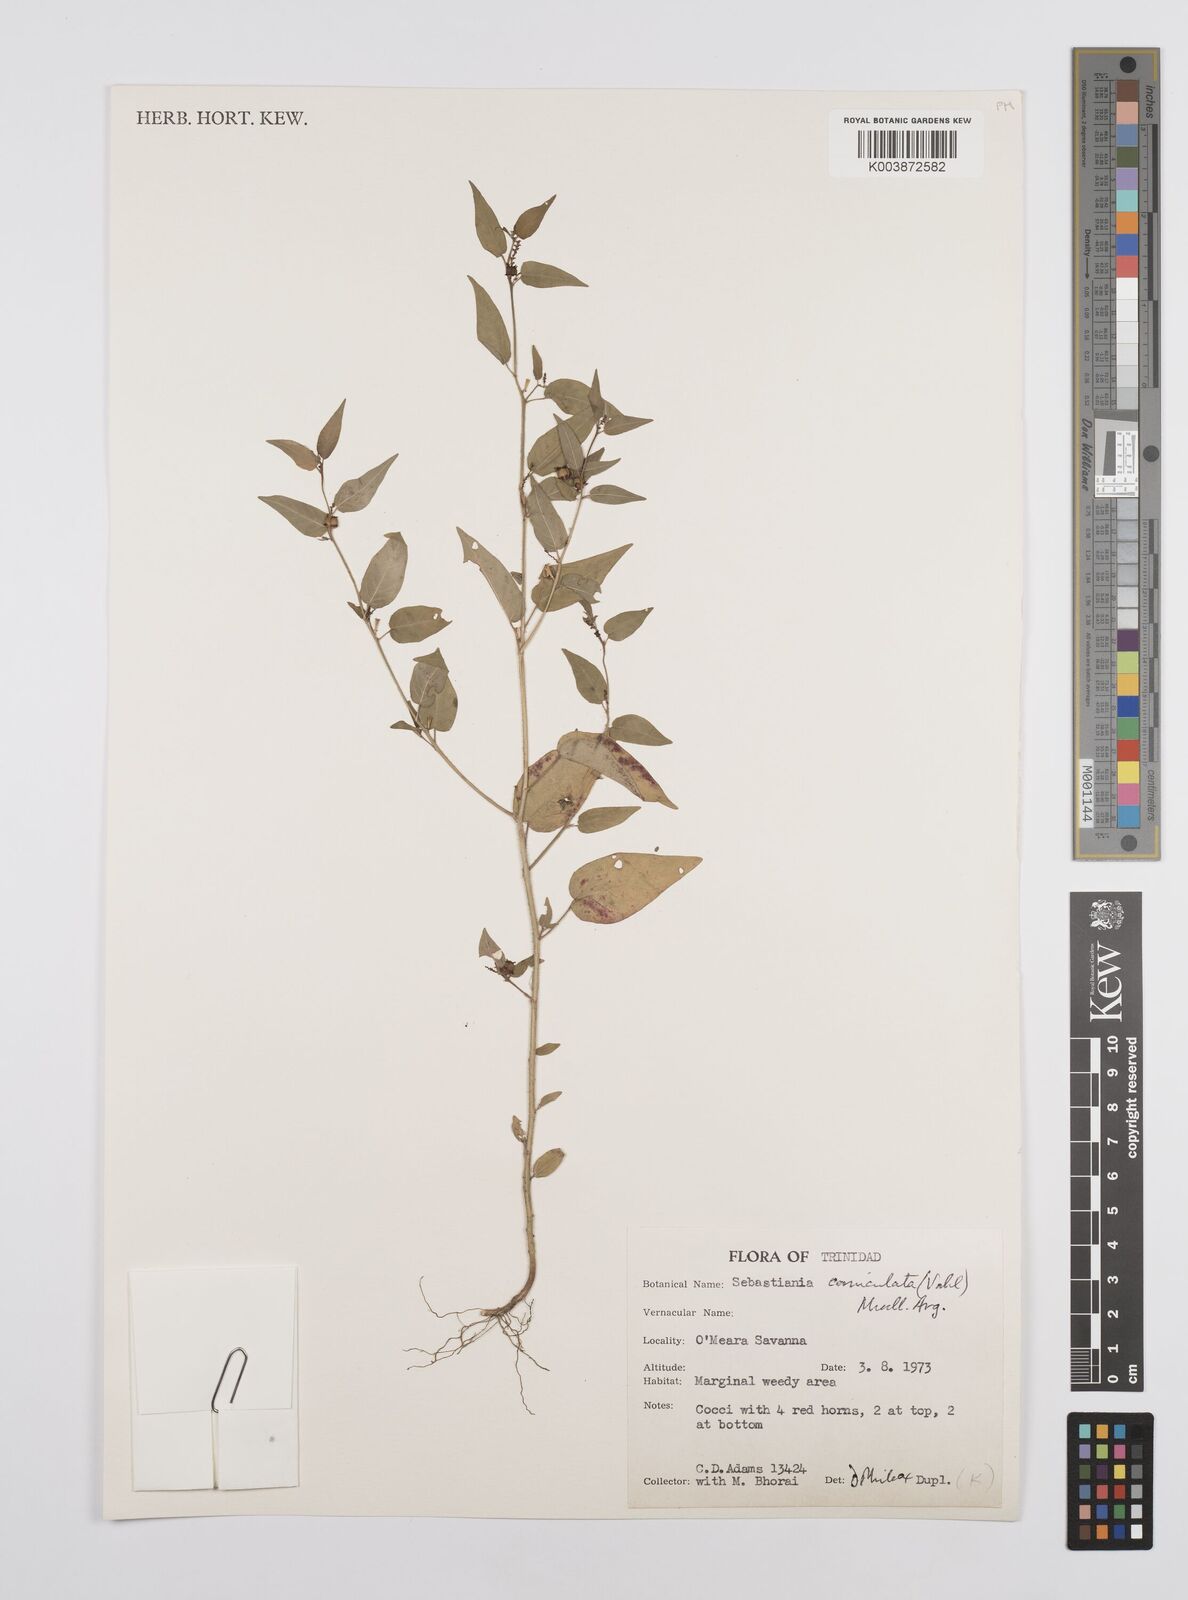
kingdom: Plantae
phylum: Tracheophyta
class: Magnoliopsida
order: Malpighiales
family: Euphorbiaceae
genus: Microstachys
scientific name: Microstachys corniculata
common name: Hato tejas
